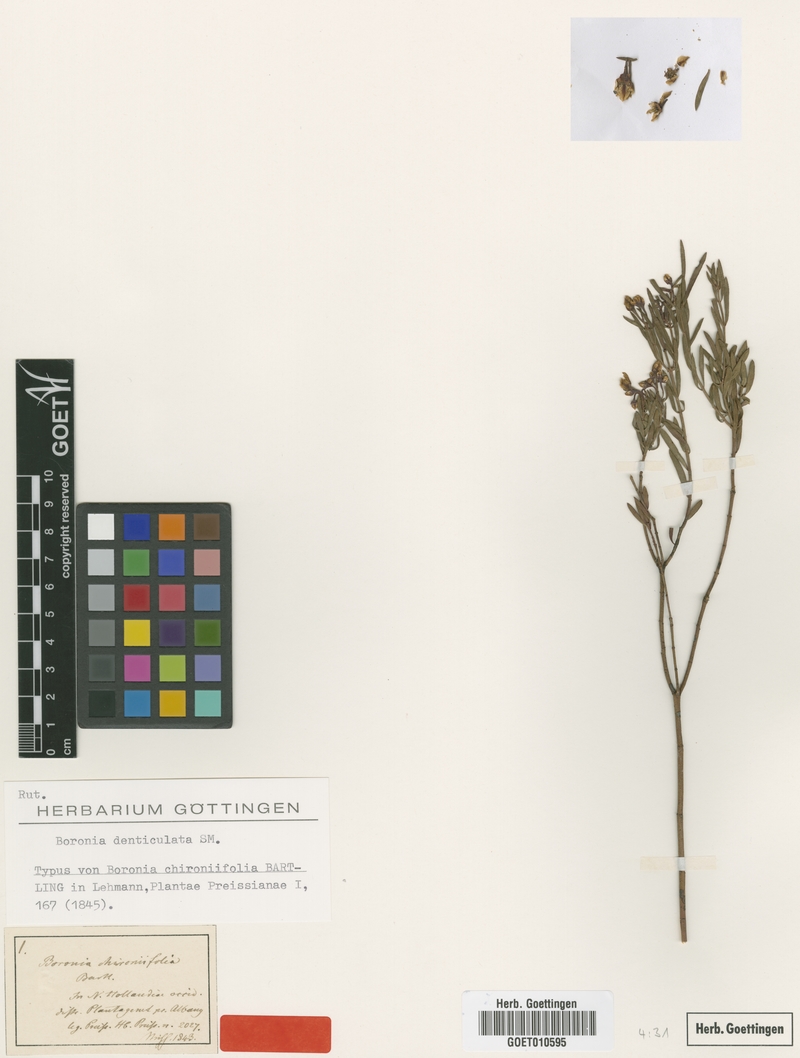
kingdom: Plantae
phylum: Tracheophyta
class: Magnoliopsida
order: Sapindales
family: Rutaceae
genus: Boronia
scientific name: Boronia denticulata
